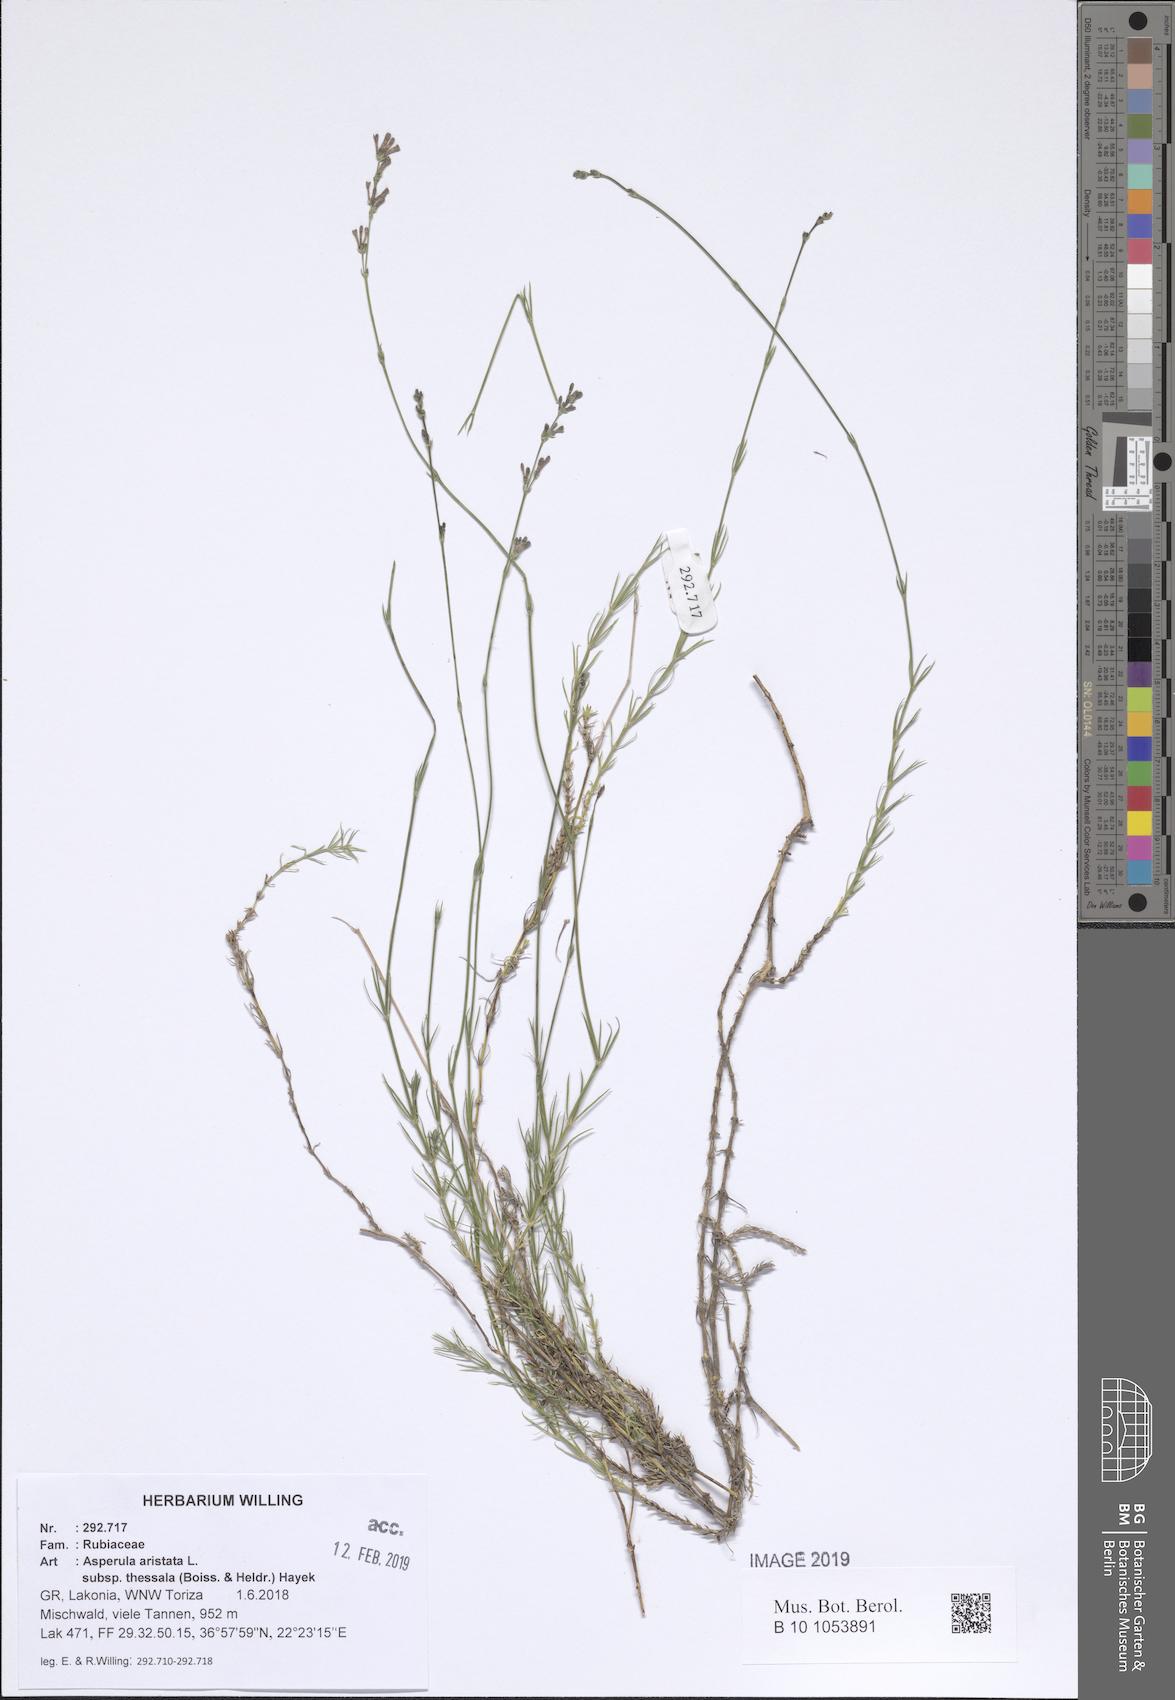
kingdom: Plantae
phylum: Tracheophyta
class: Magnoliopsida
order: Gentianales
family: Rubiaceae
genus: Cynanchica
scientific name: Cynanchica aristata
